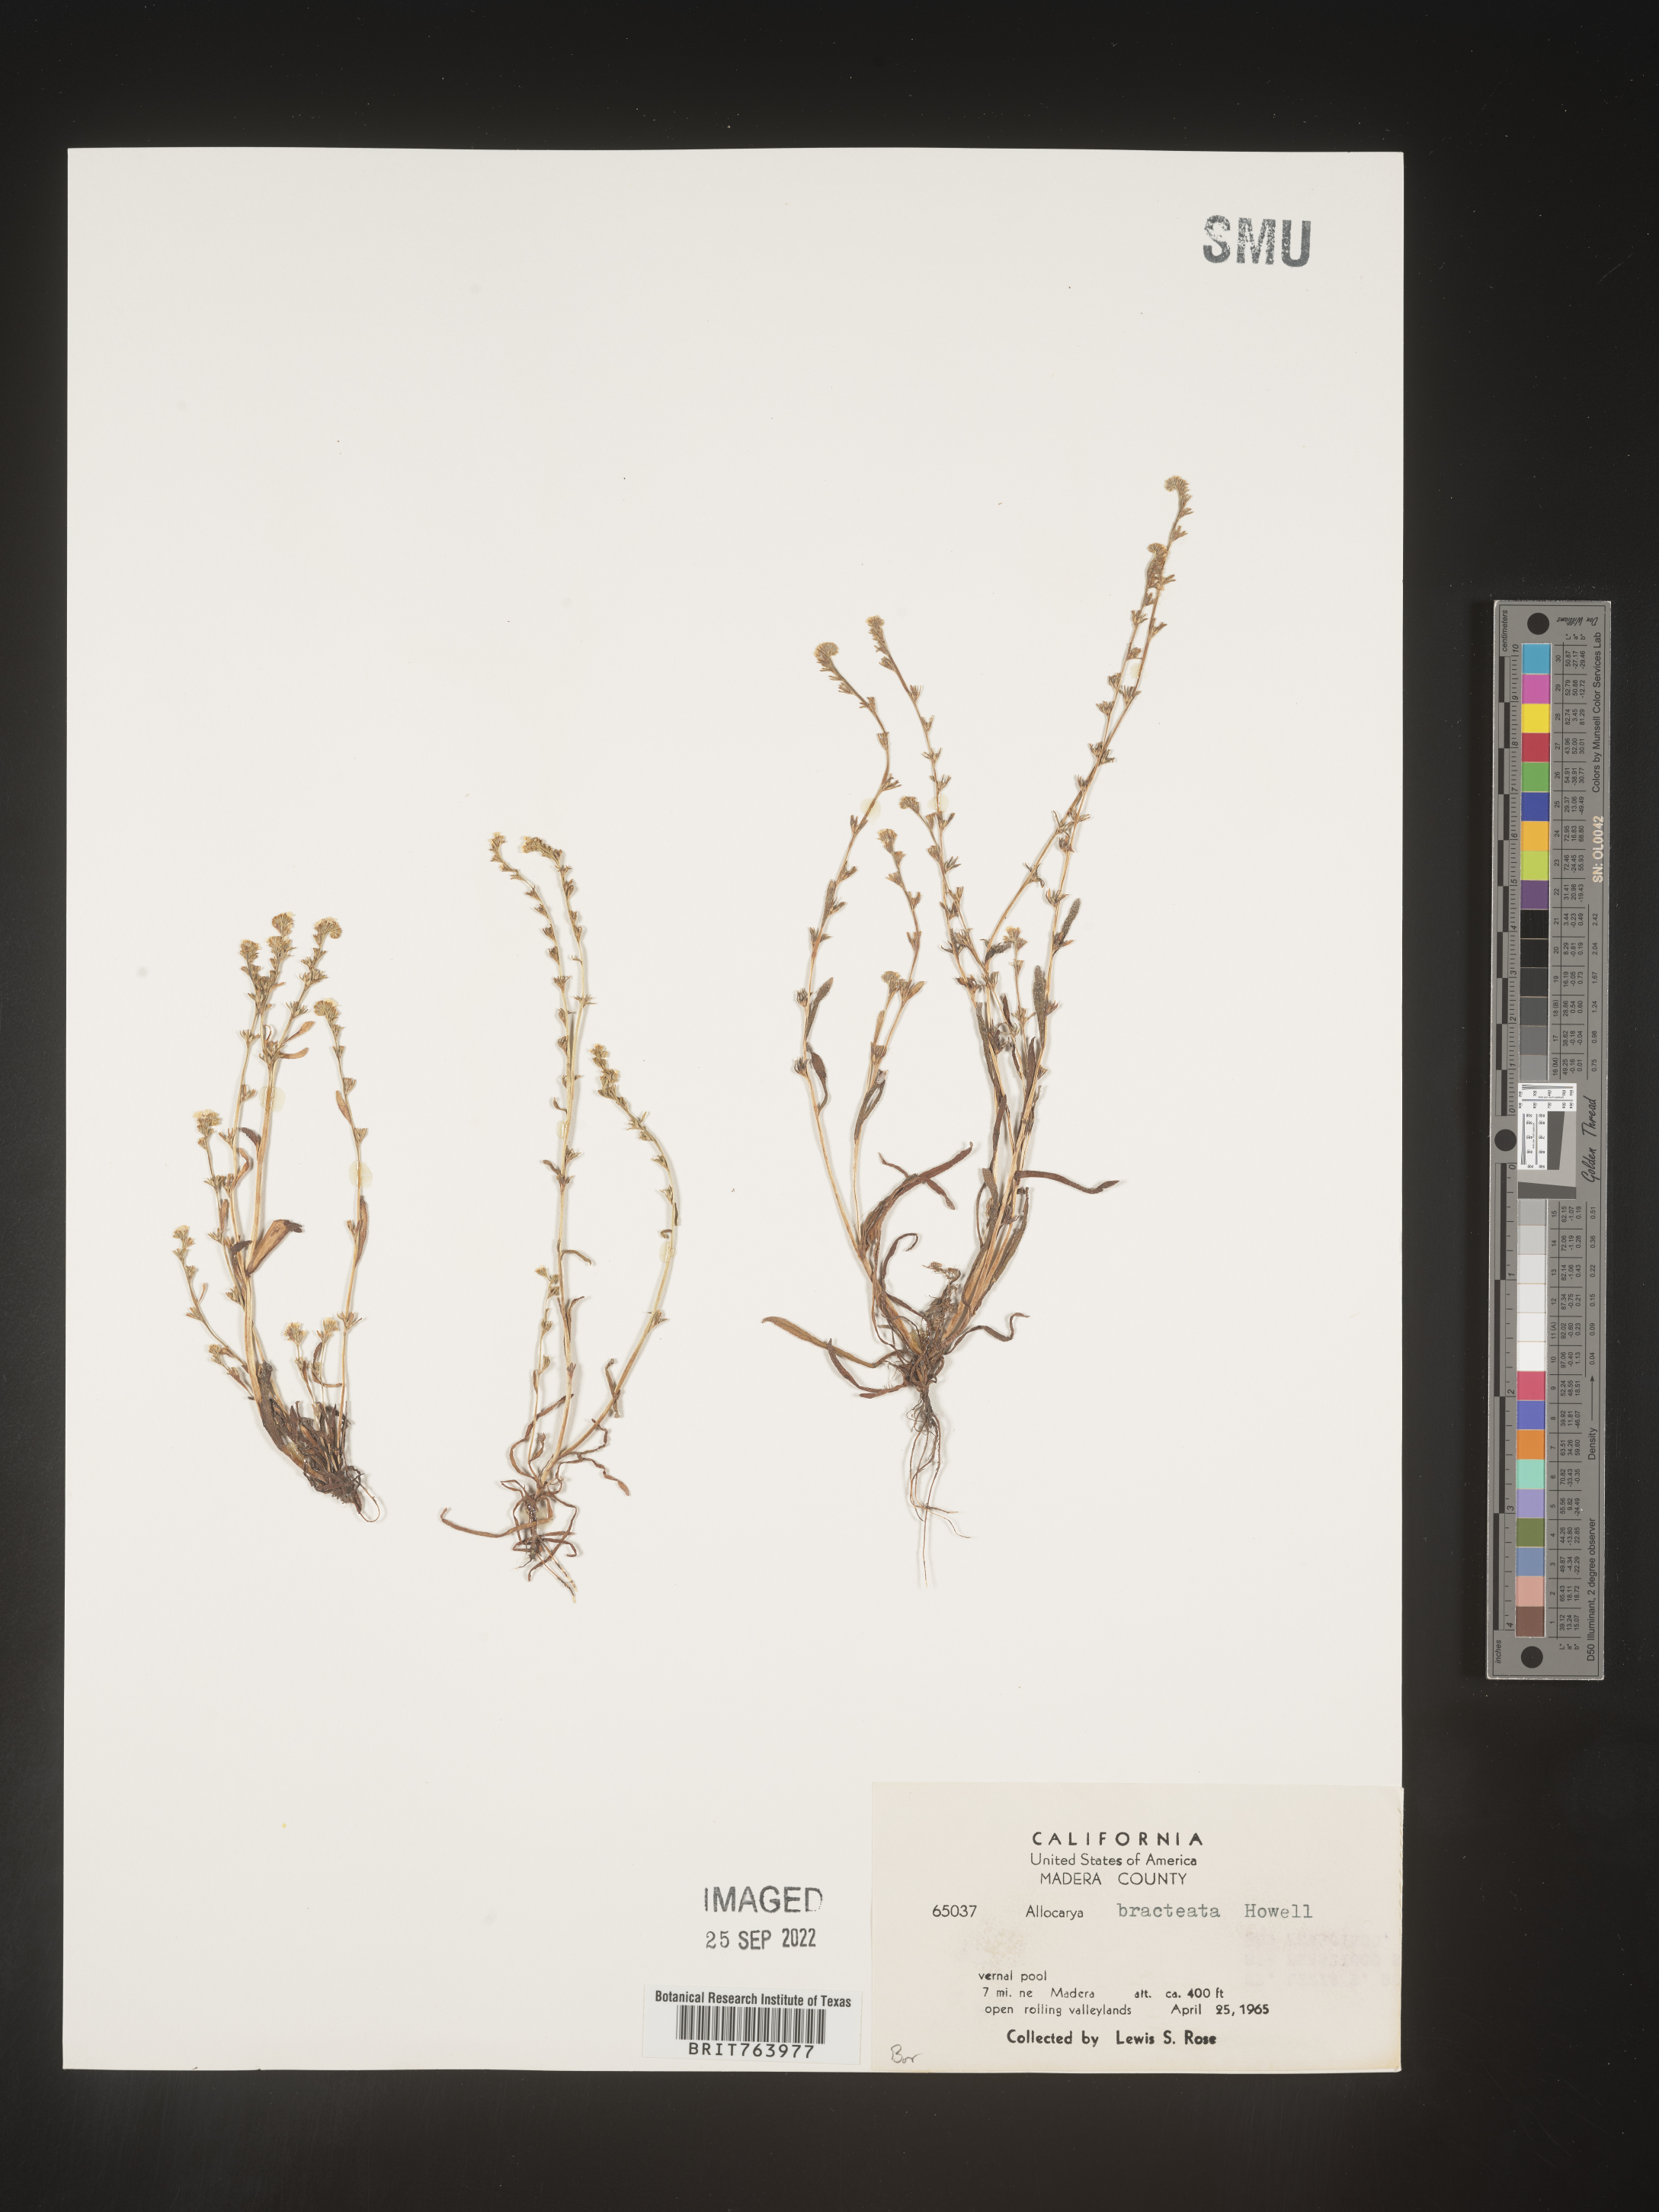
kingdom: Plantae
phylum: Tracheophyta
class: Magnoliopsida
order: Boraginales
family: Boraginaceae
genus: Plagiobothrys
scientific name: Plagiobothrys
